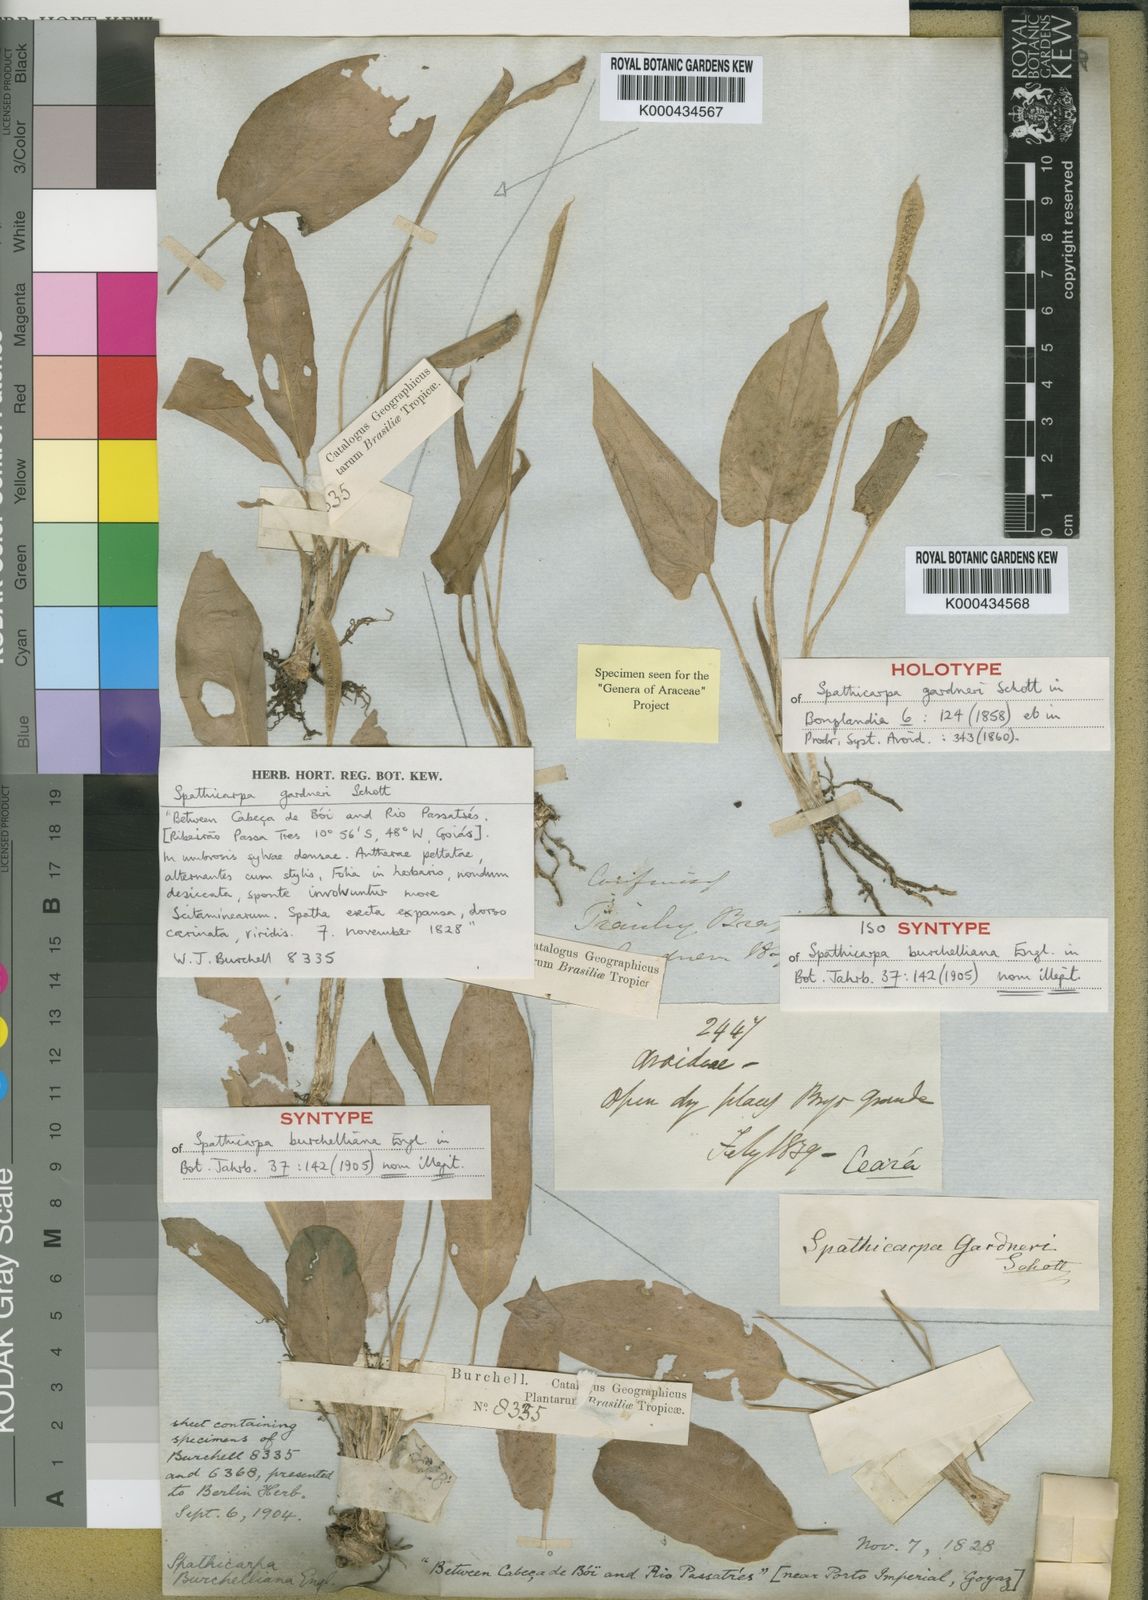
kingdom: Plantae
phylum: Tracheophyta
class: Liliopsida
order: Alismatales
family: Araceae
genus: Spathicarpa
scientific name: Spathicarpa gardneri
